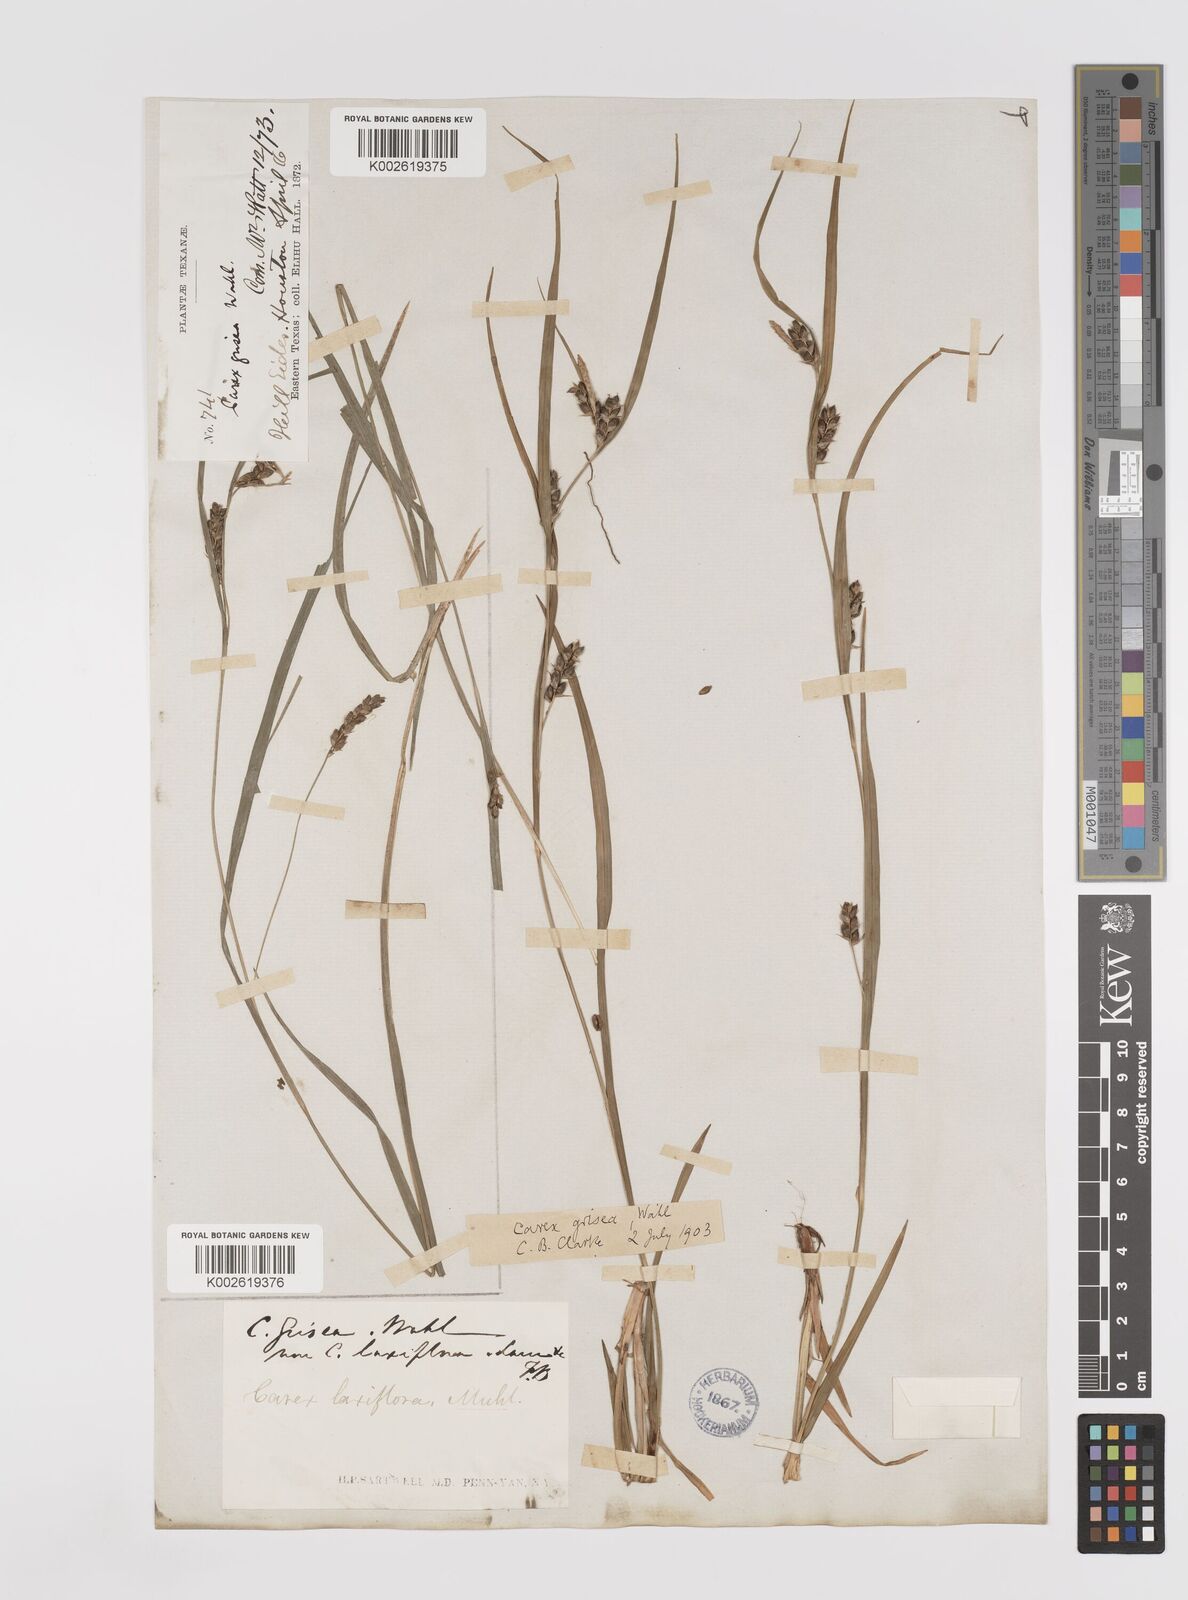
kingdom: Plantae
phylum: Tracheophyta
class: Liliopsida
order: Poales
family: Cyperaceae
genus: Carex
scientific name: Carex grisea
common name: Eastern narrow-leaved sedge
